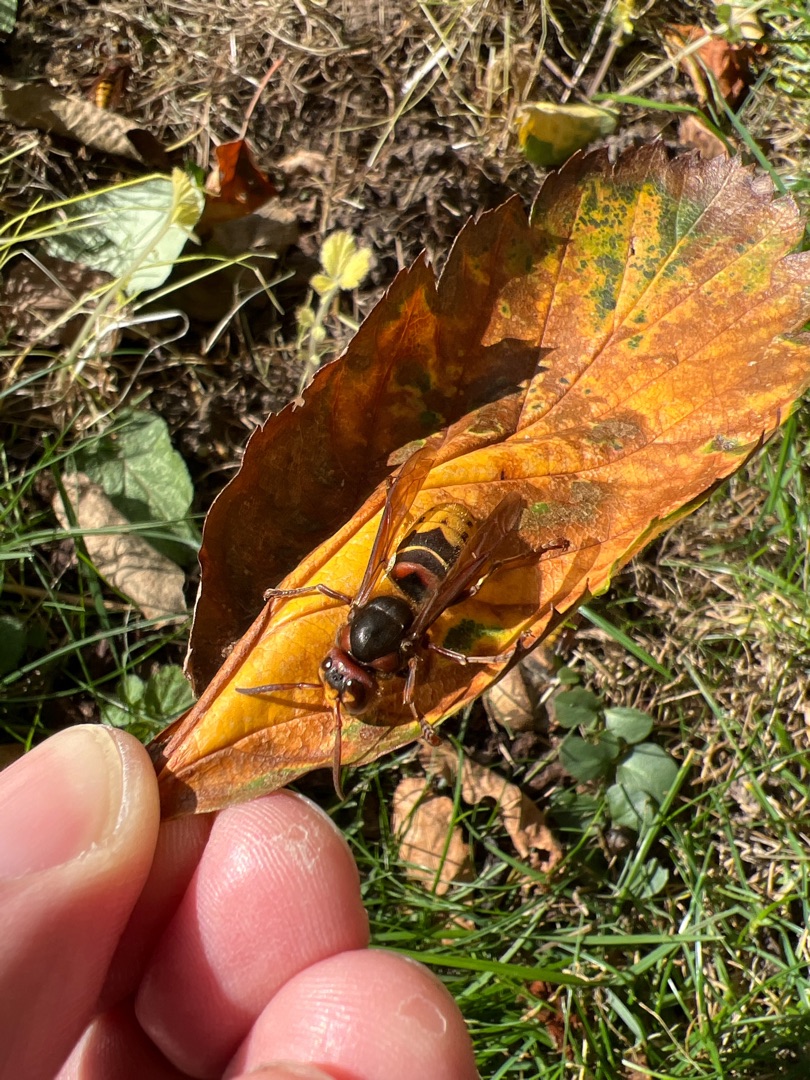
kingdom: Animalia
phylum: Arthropoda
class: Insecta
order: Hymenoptera
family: Vespidae
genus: Vespa
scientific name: Vespa crabro
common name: Stor gedehams
